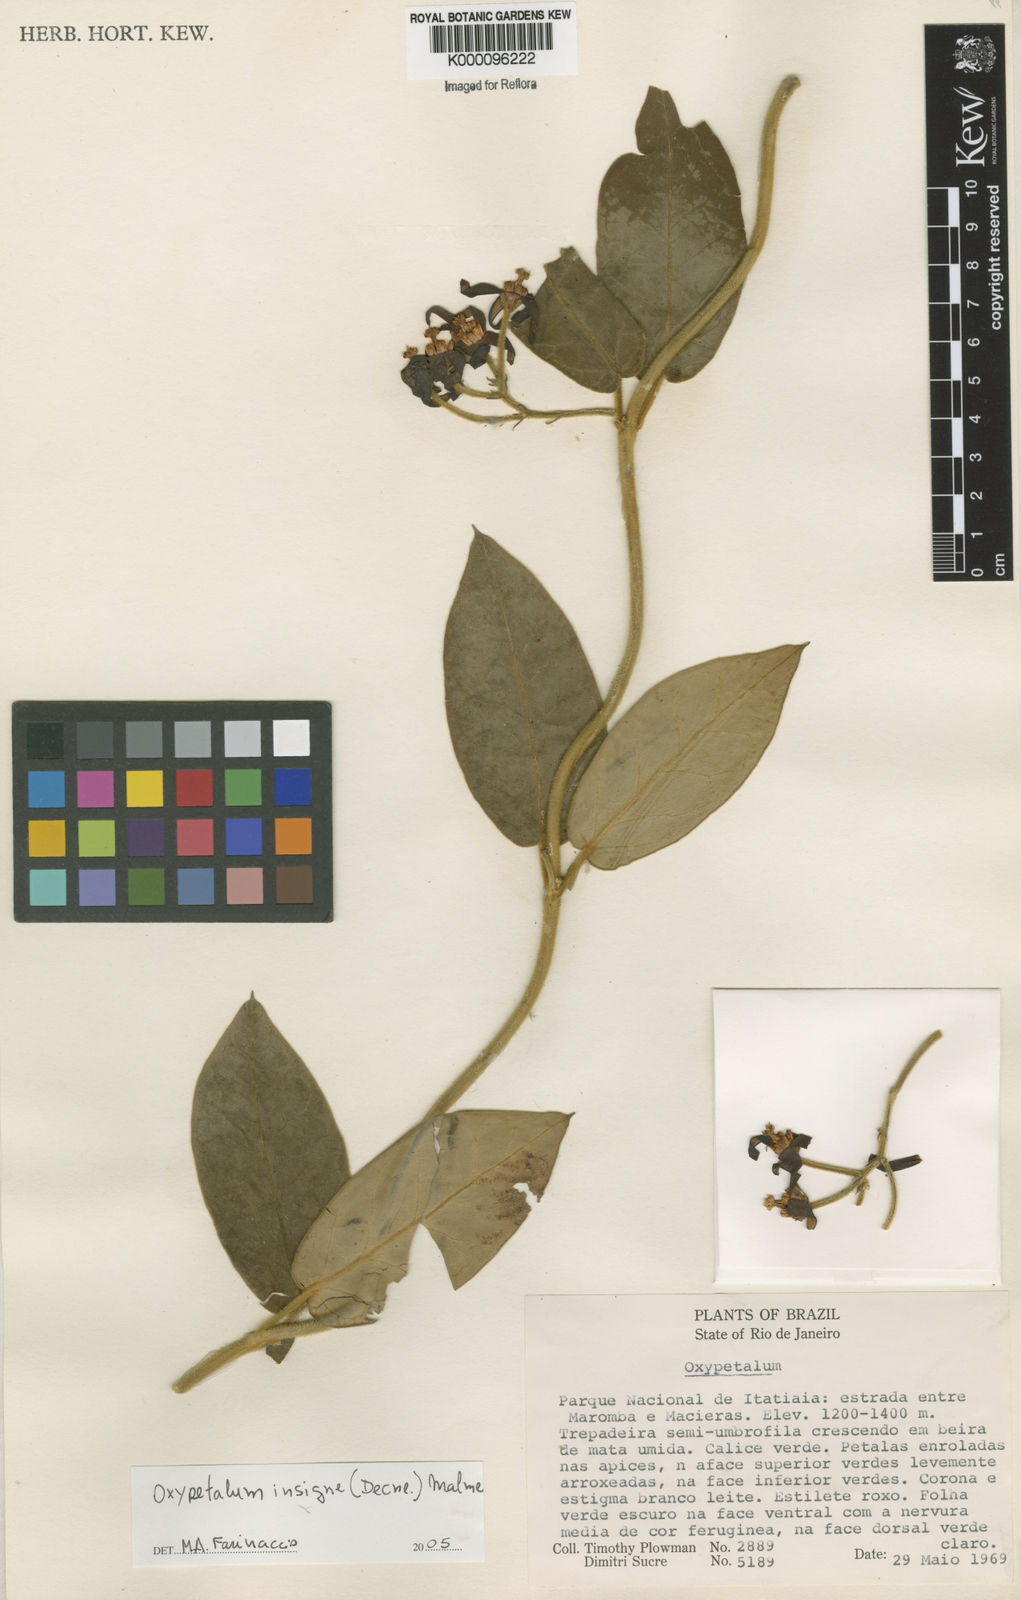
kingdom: Plantae
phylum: Tracheophyta
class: Magnoliopsida
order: Gentianales
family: Apocynaceae
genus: Oxypetalum
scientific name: Oxypetalum insigne
